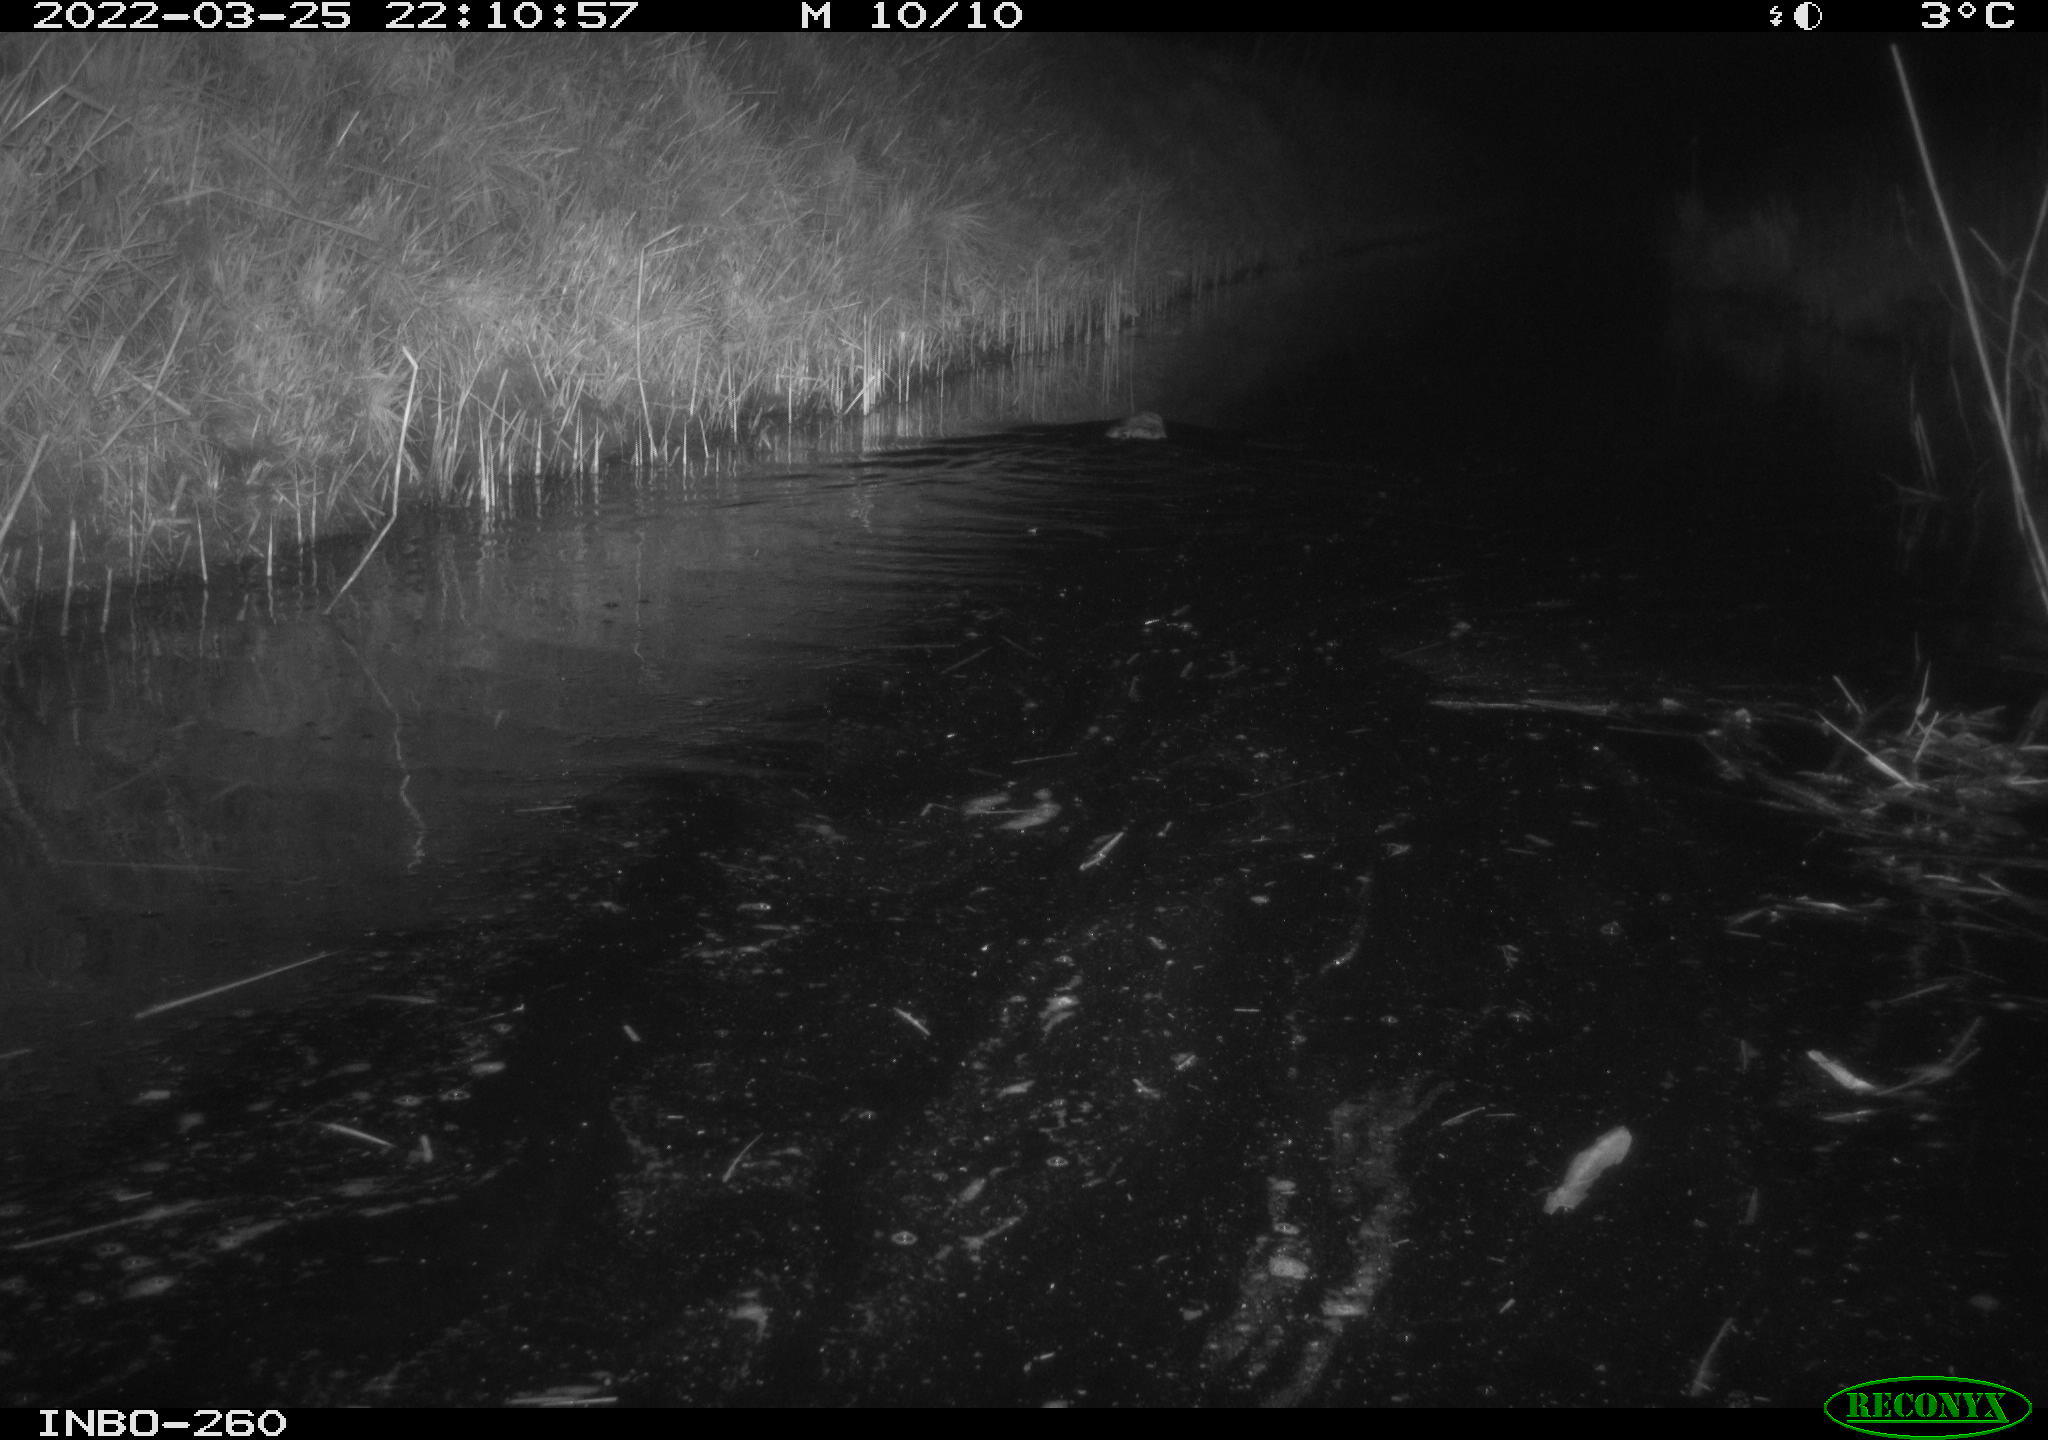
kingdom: Animalia
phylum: Chordata
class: Mammalia
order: Rodentia
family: Cricetidae
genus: Ondatra
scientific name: Ondatra zibethicus
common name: Muskrat
